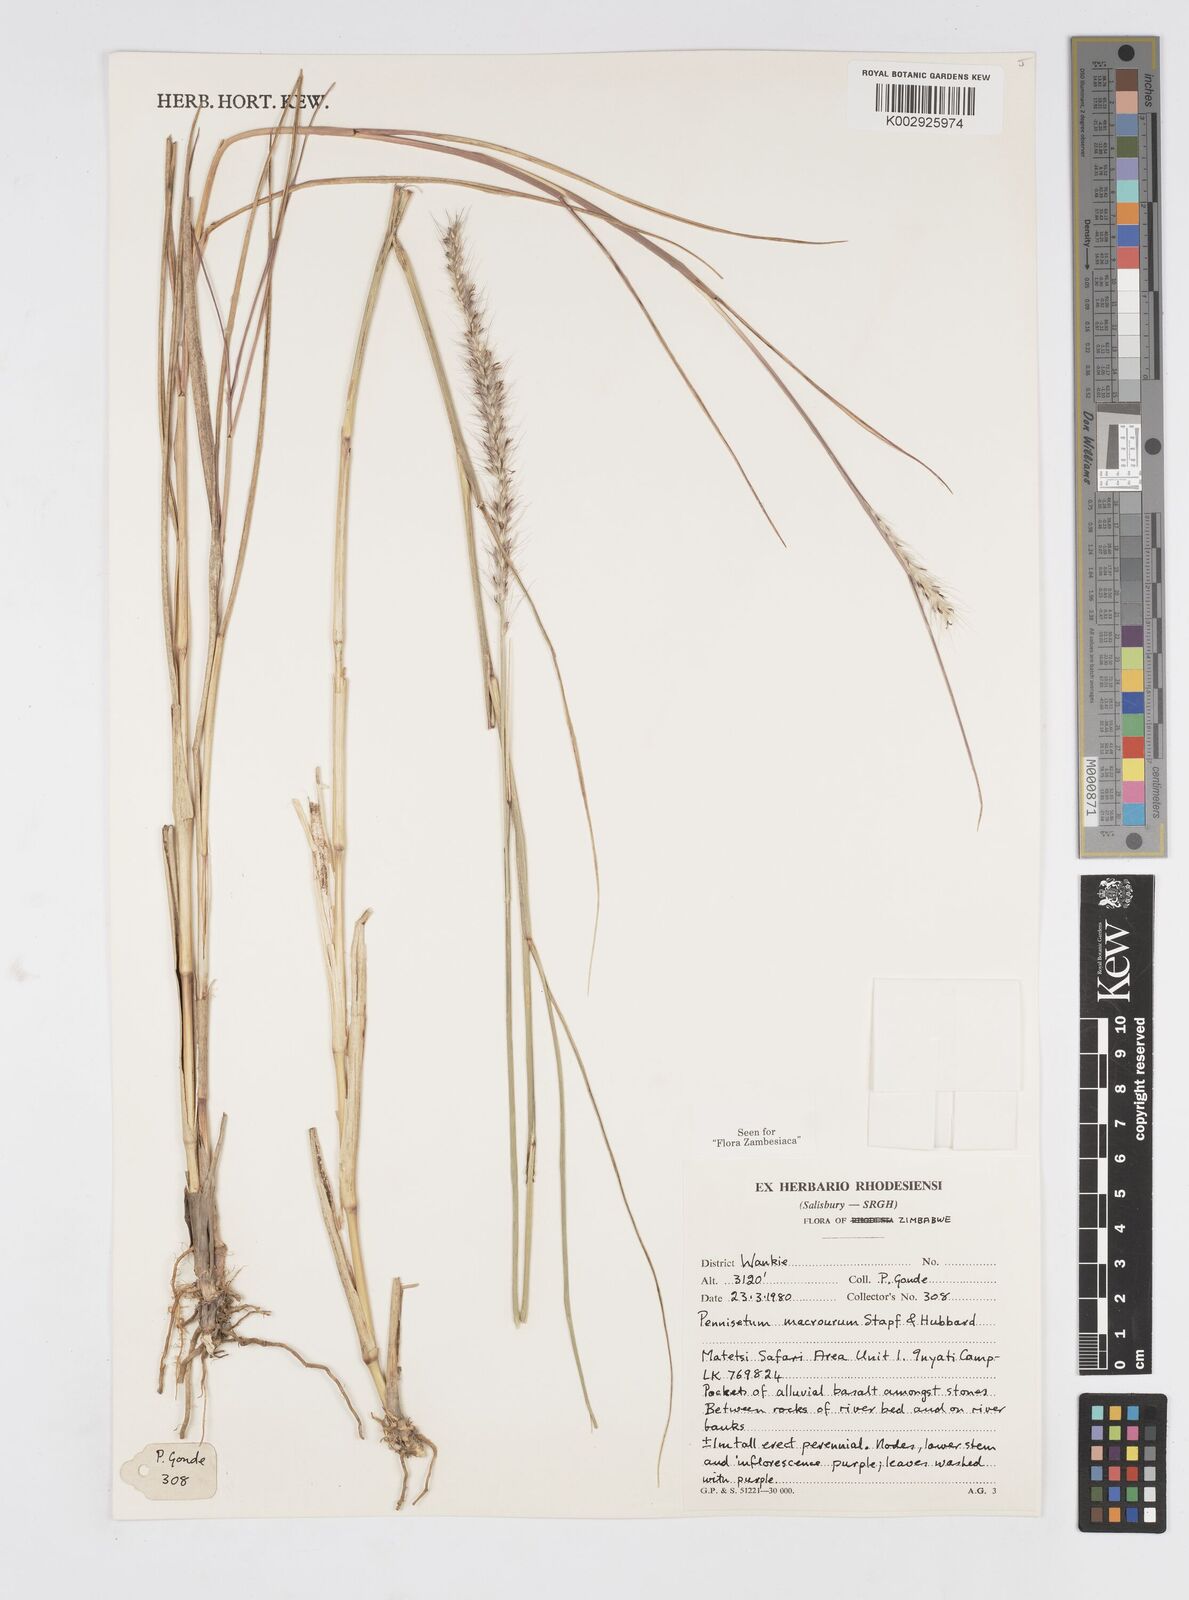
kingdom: Plantae
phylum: Tracheophyta
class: Liliopsida
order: Poales
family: Poaceae
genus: Cenchrus
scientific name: Cenchrus caudatus
